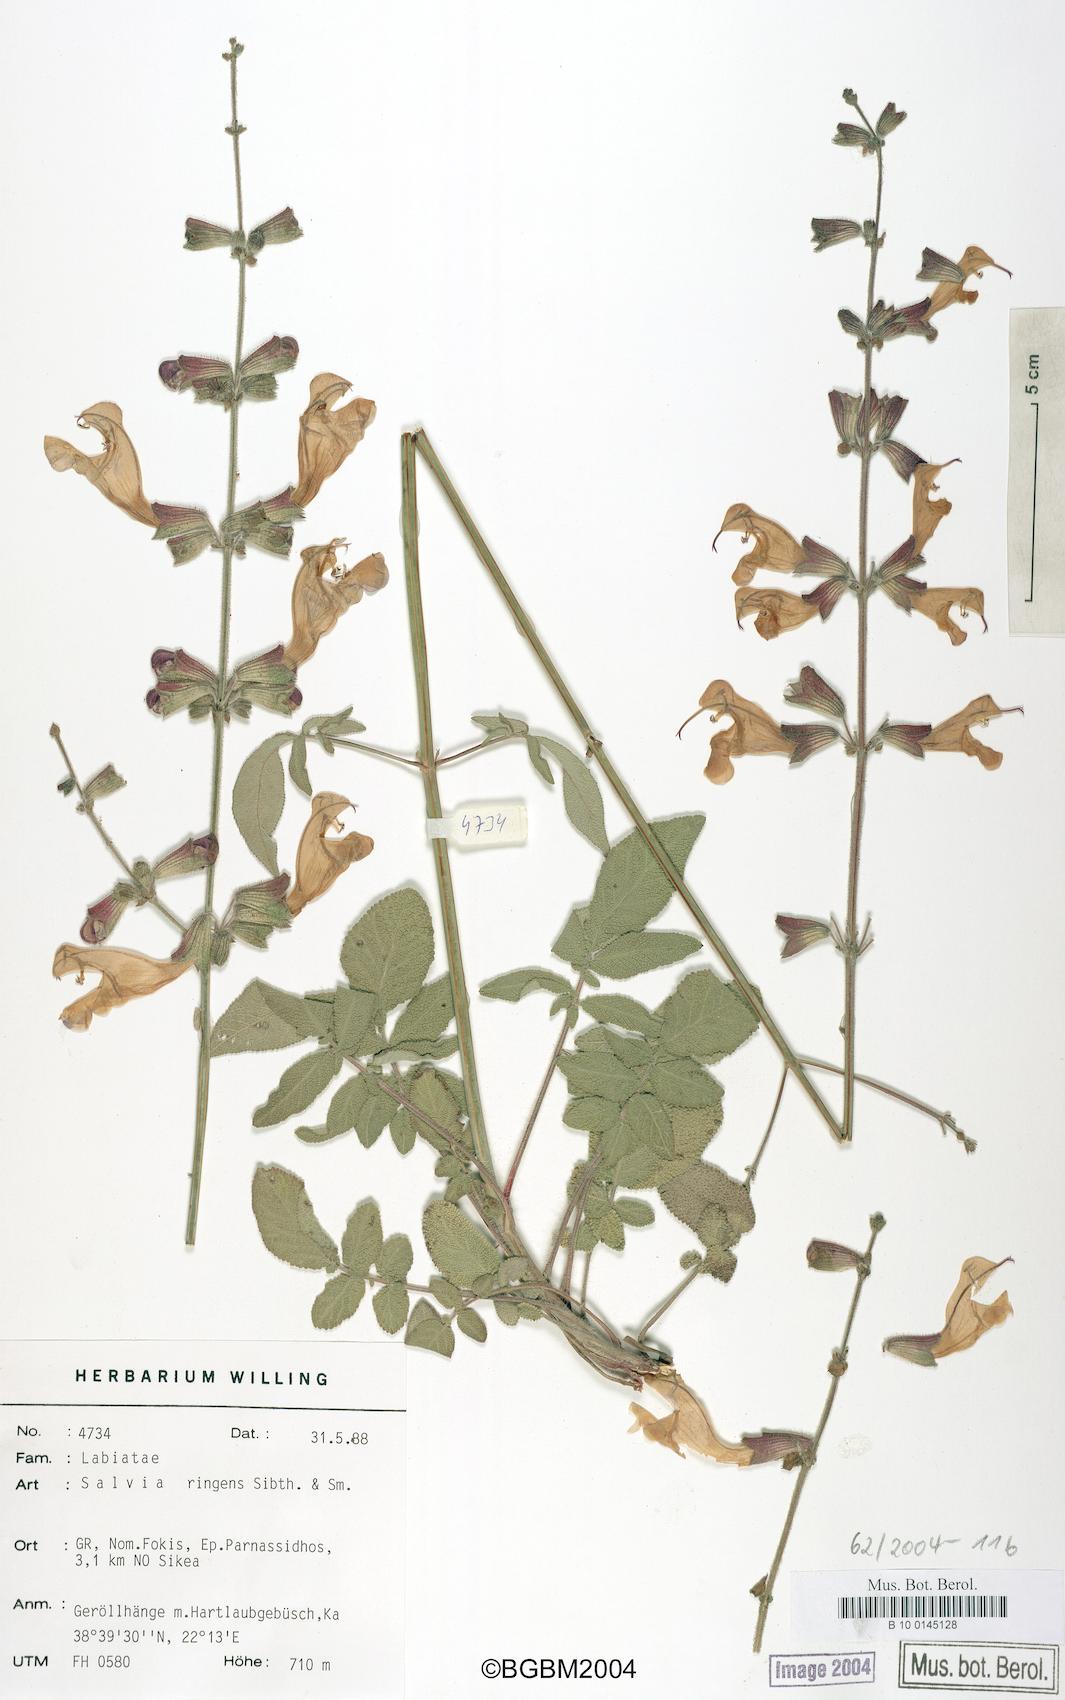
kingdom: Plantae
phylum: Tracheophyta
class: Magnoliopsida
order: Lamiales
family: Lamiaceae
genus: Salvia
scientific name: Salvia ringens
